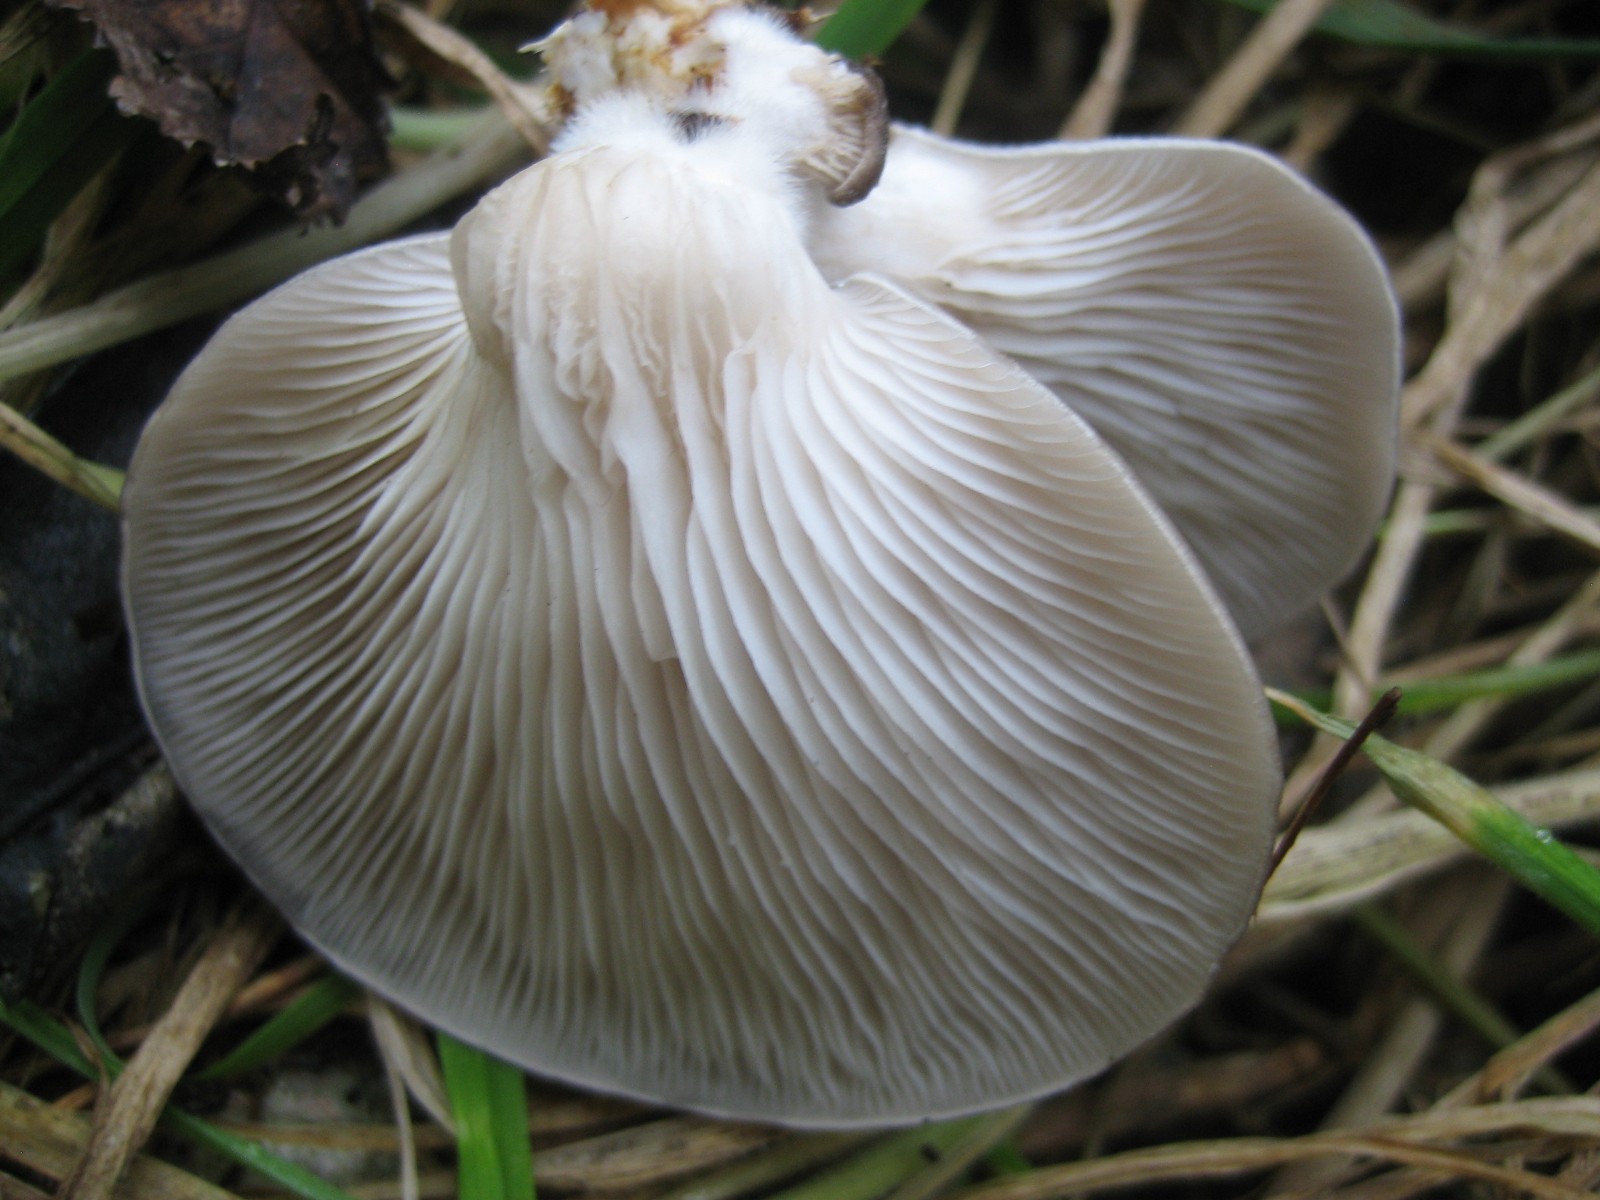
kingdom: Fungi
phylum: Basidiomycota
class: Agaricomycetes
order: Agaricales
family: Pleurotaceae
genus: Pleurotus
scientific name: Pleurotus ostreatus
